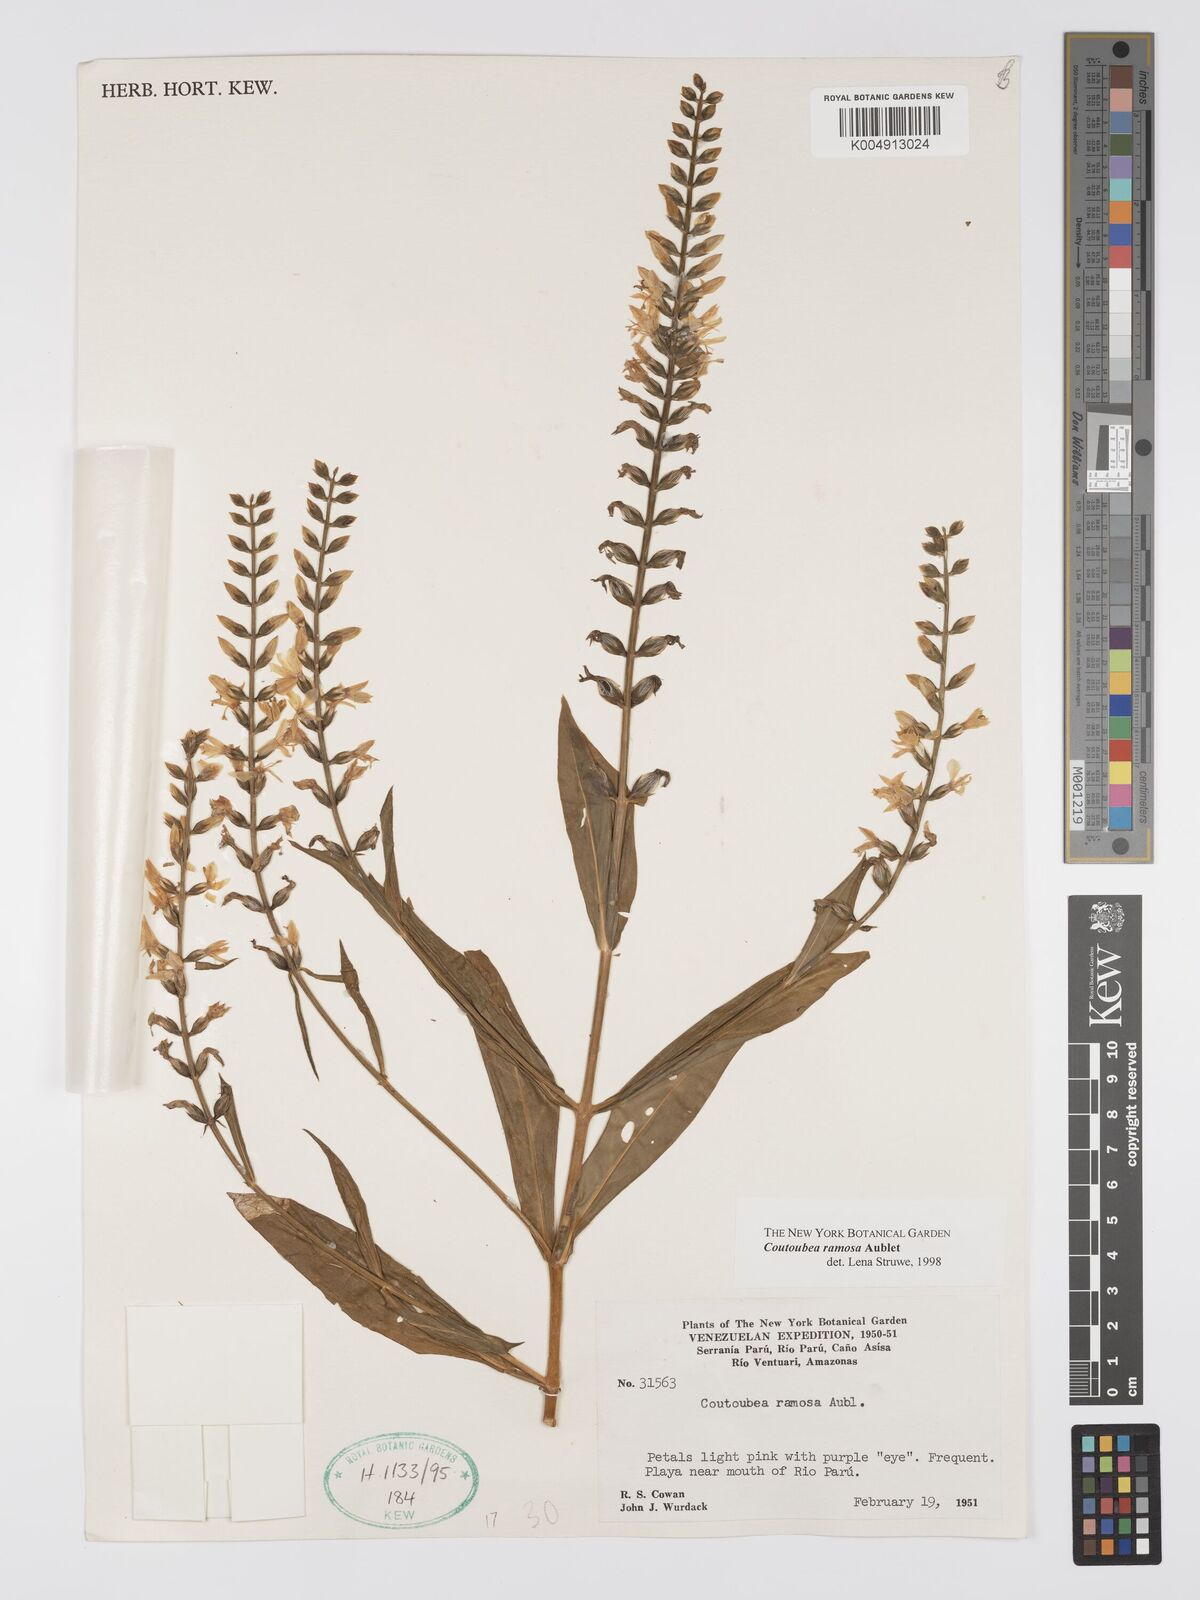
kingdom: Plantae
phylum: Tracheophyta
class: Magnoliopsida
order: Gentianales
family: Gentianaceae
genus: Coutoubea
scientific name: Coutoubea ramosa
